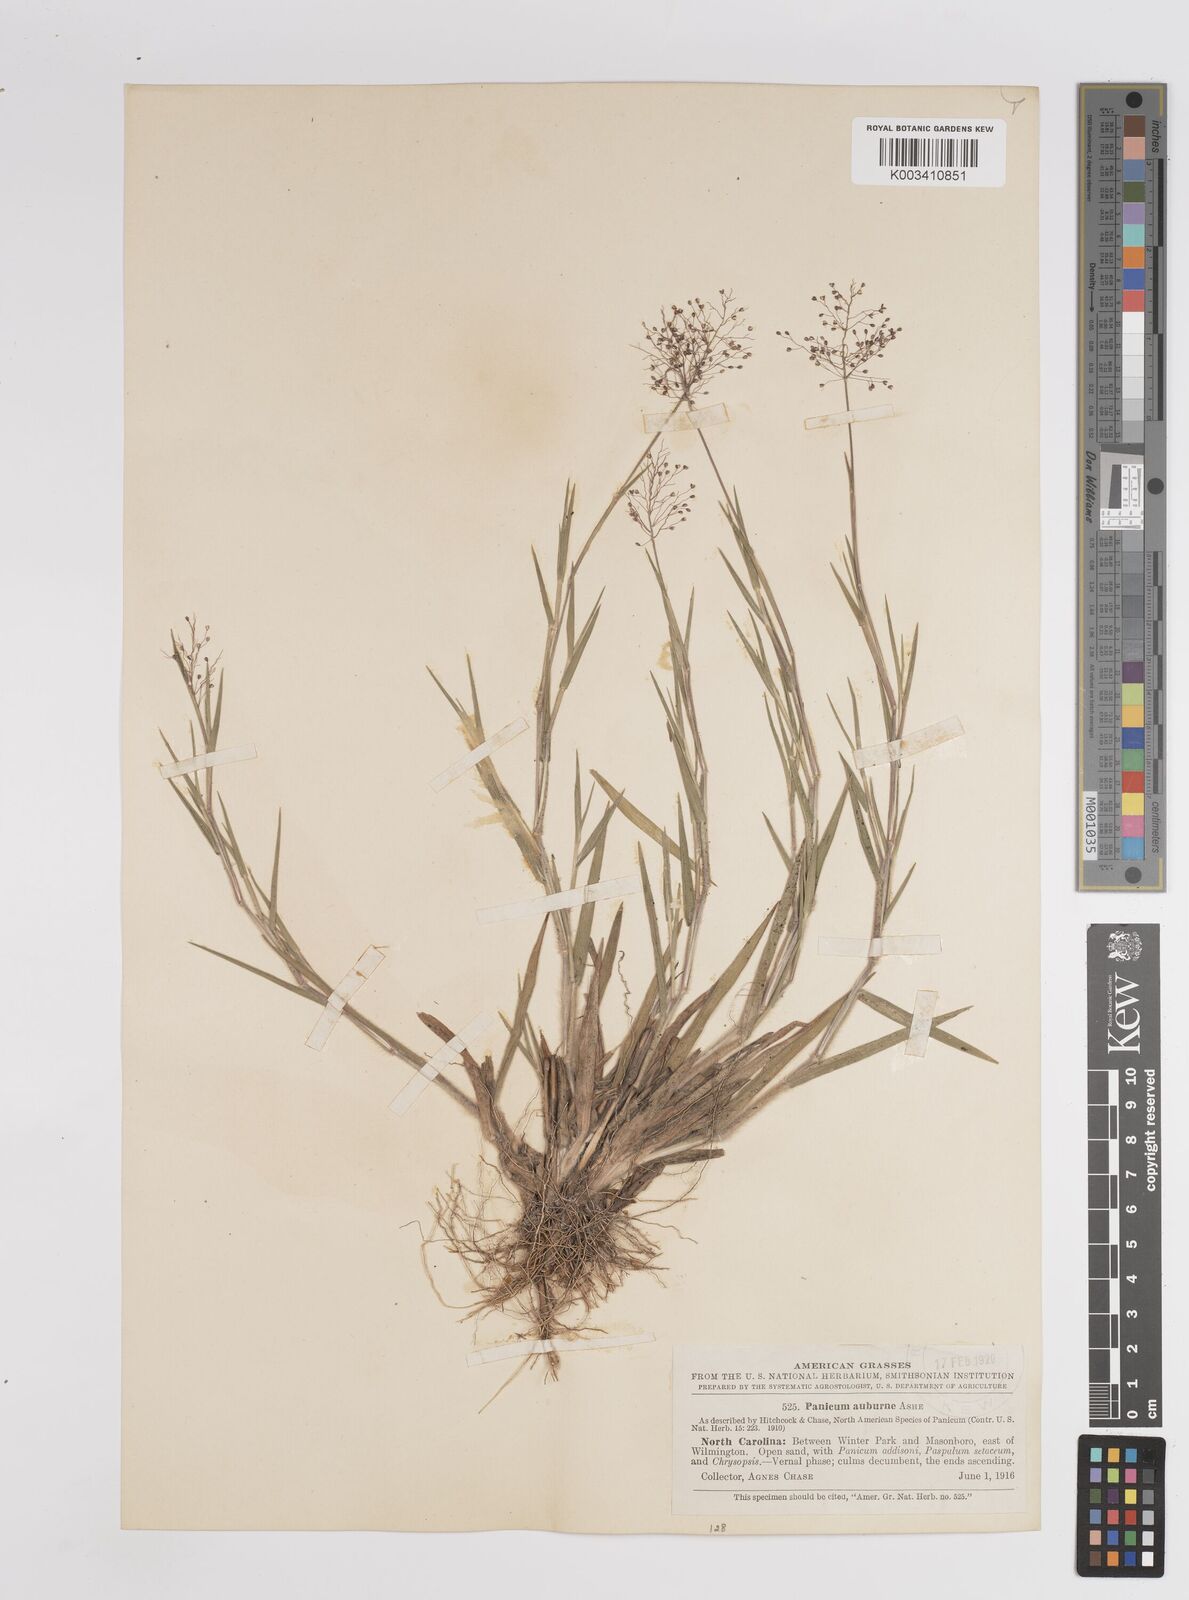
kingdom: Plantae
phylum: Tracheophyta
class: Liliopsida
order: Poales
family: Poaceae
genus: Dichanthelium
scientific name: Dichanthelium acuminatum
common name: Hairy panic grass
